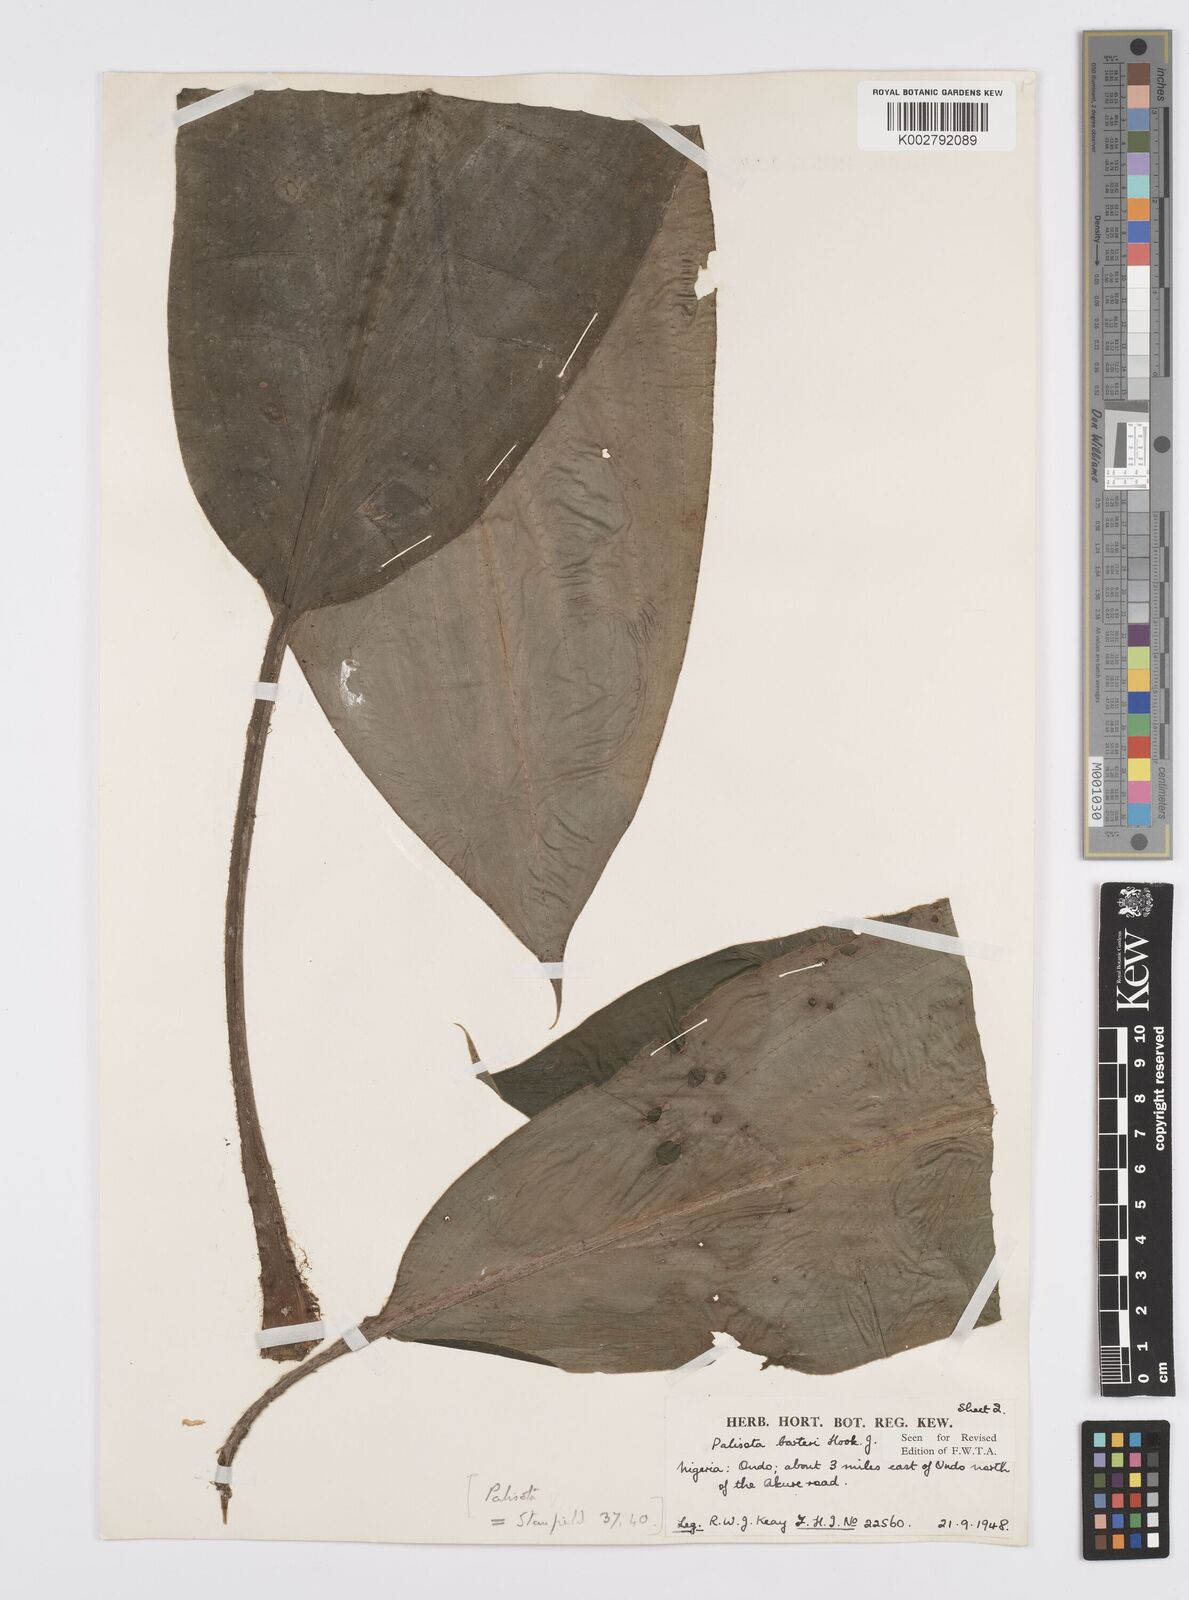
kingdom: Plantae
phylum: Tracheophyta
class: Liliopsida
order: Commelinales
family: Commelinaceae
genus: Palisota
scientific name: Palisota barteri
